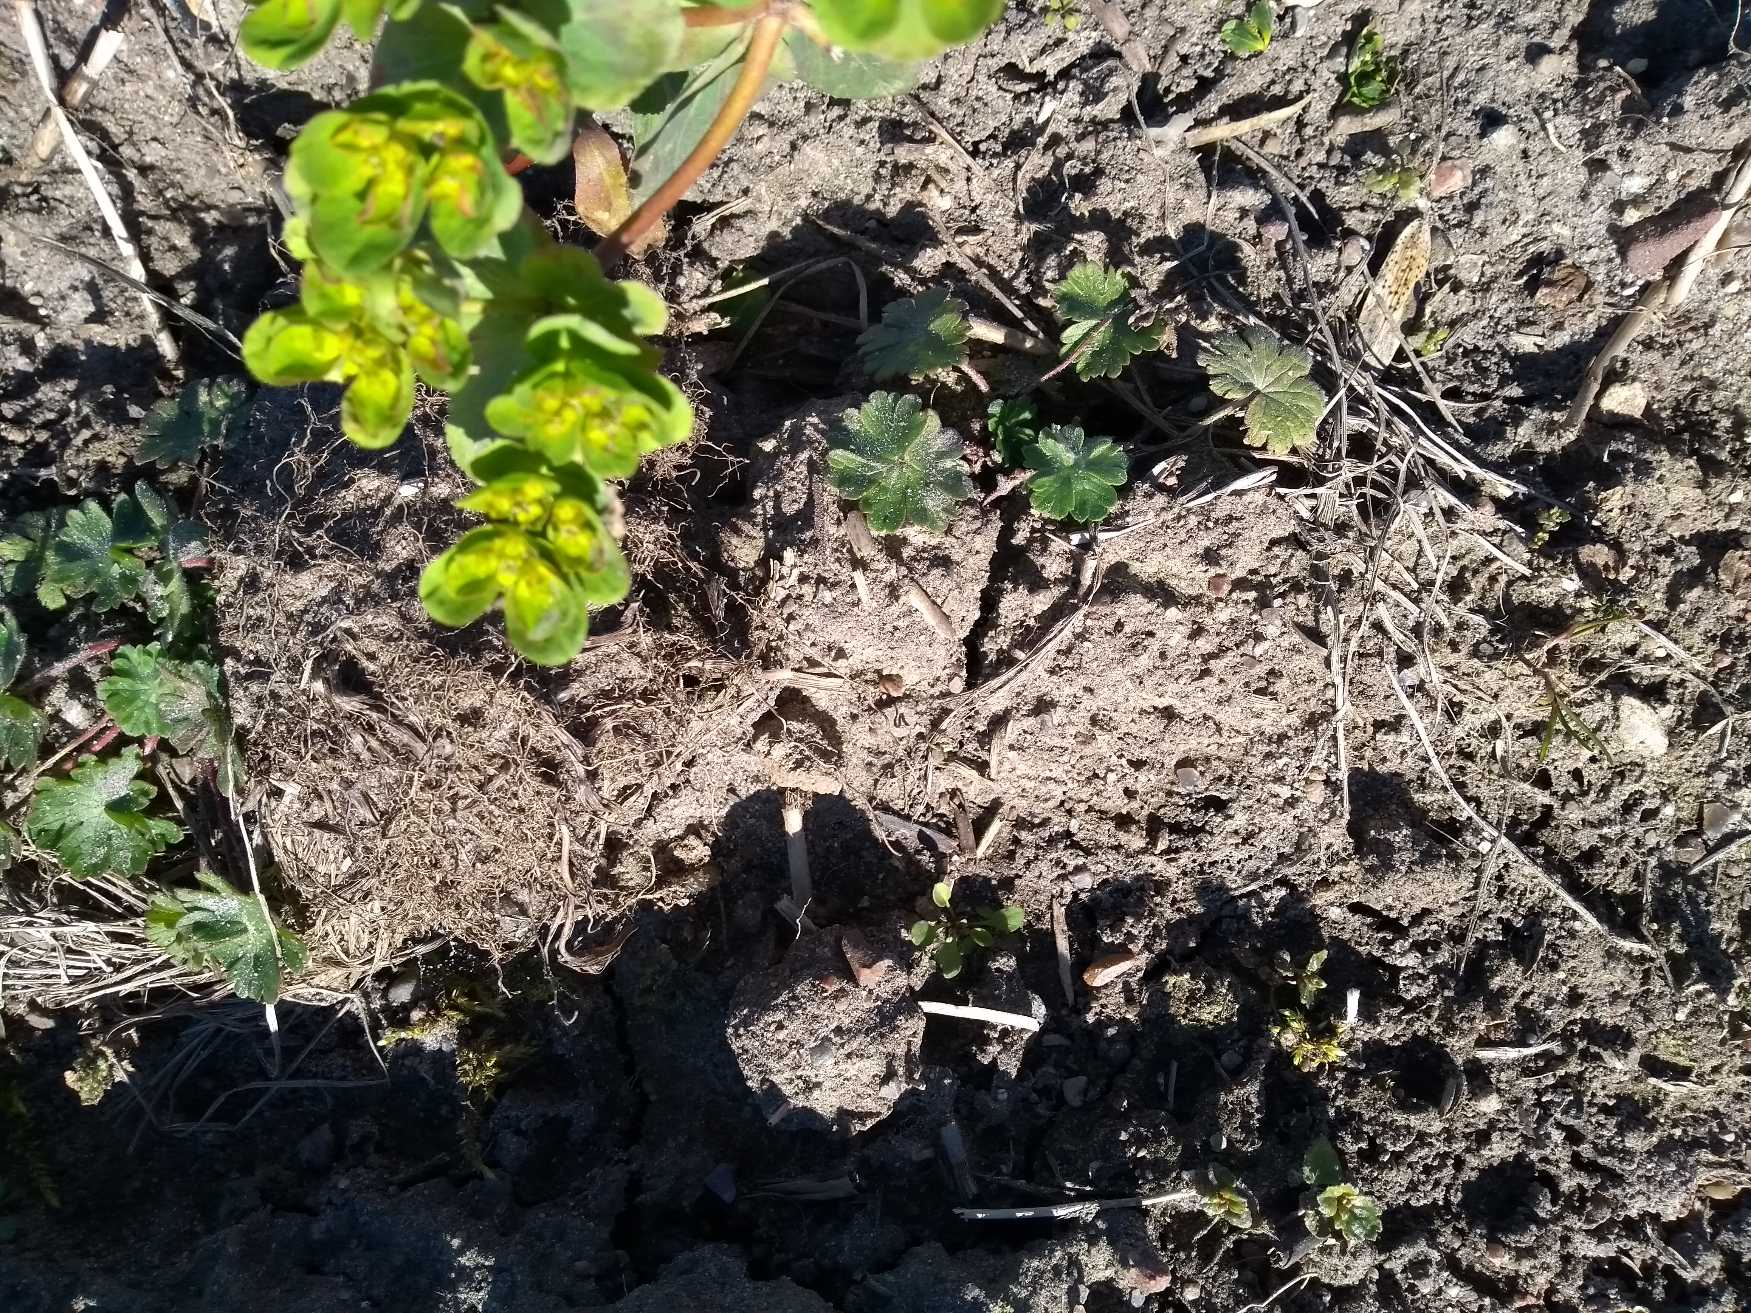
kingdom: Plantae
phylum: Tracheophyta
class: Magnoliopsida
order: Malpighiales
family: Euphorbiaceae
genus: Euphorbia
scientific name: Euphorbia helioscopia
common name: Skærm-vortemælk
